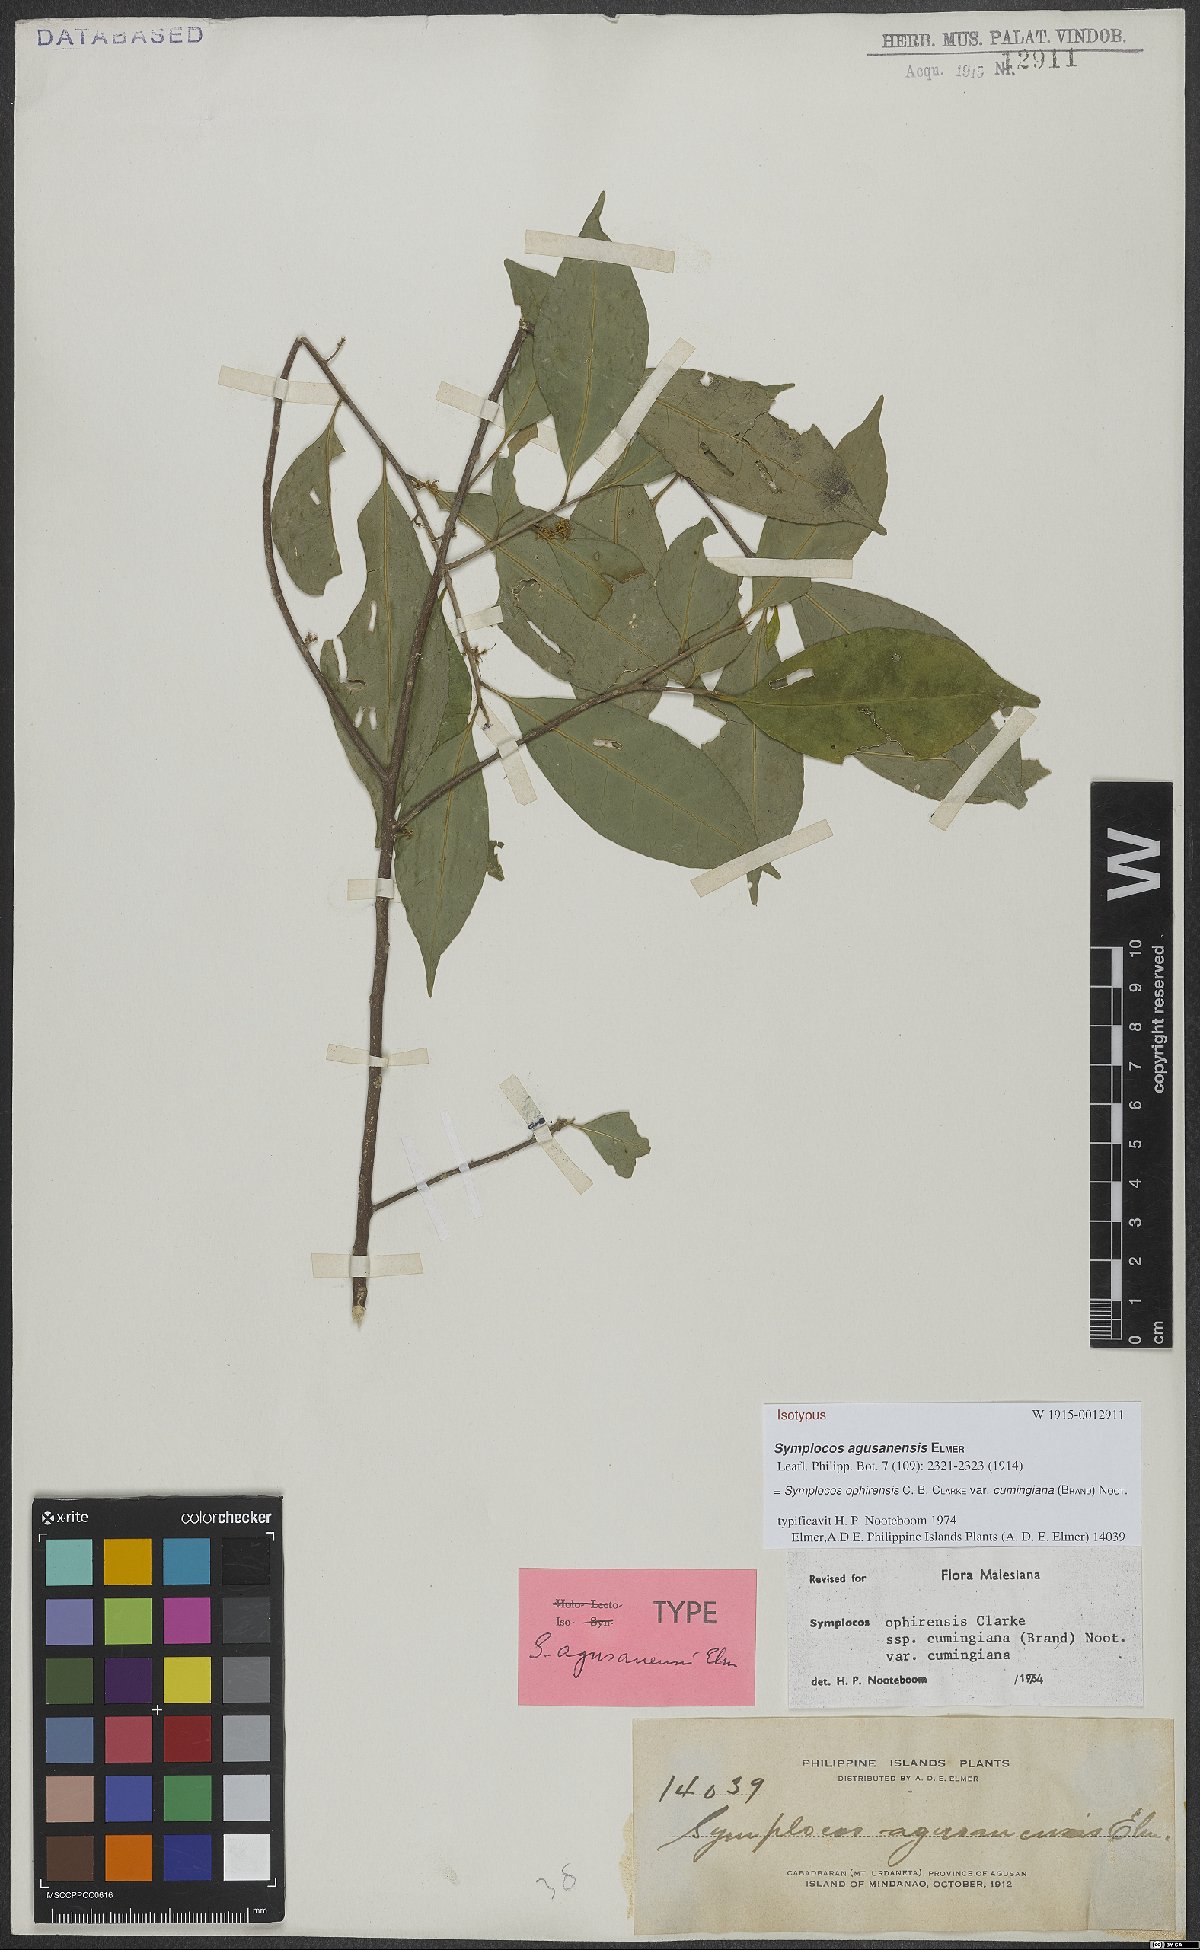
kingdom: Plantae
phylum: Tracheophyta
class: Magnoliopsida
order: Ericales
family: Symplocaceae
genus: Symplocos
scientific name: Symplocos ophirensis
